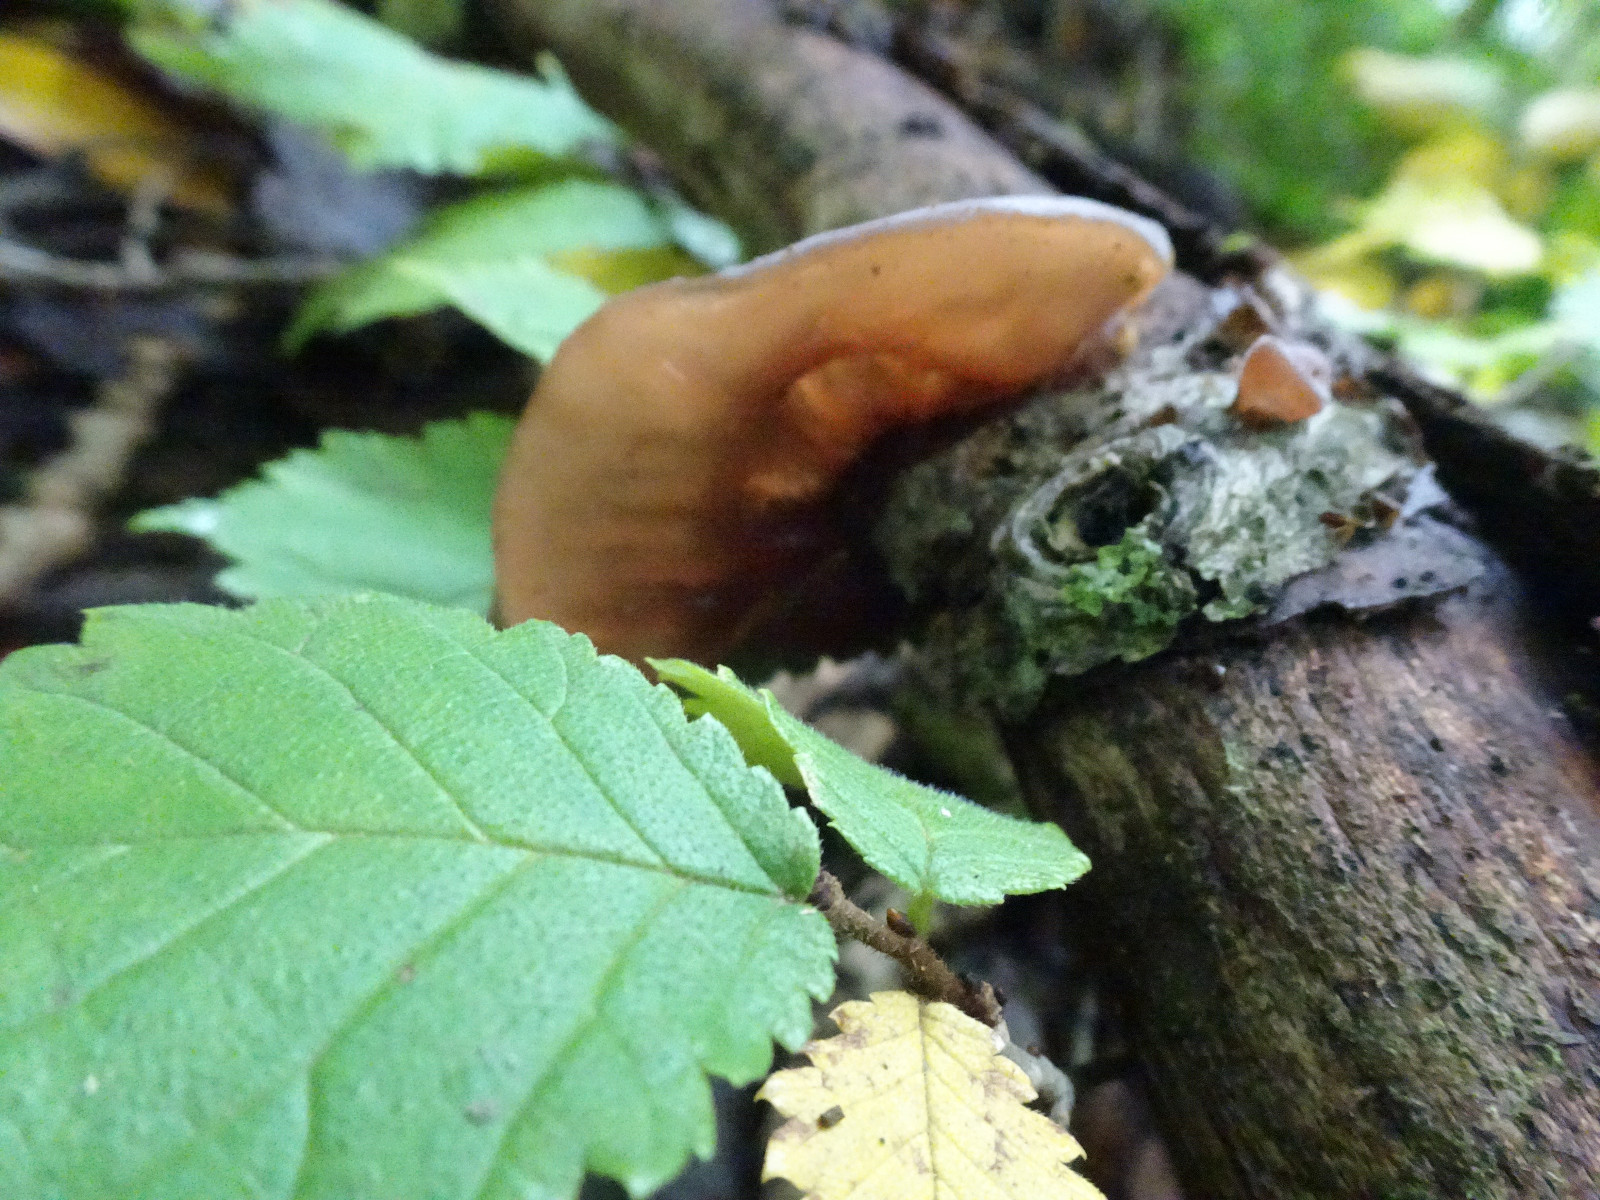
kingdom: Fungi
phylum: Basidiomycota
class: Agaricomycetes
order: Auriculariales
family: Auriculariaceae
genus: Auricularia
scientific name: Auricularia auricula-judae
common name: almindelig judasøre
